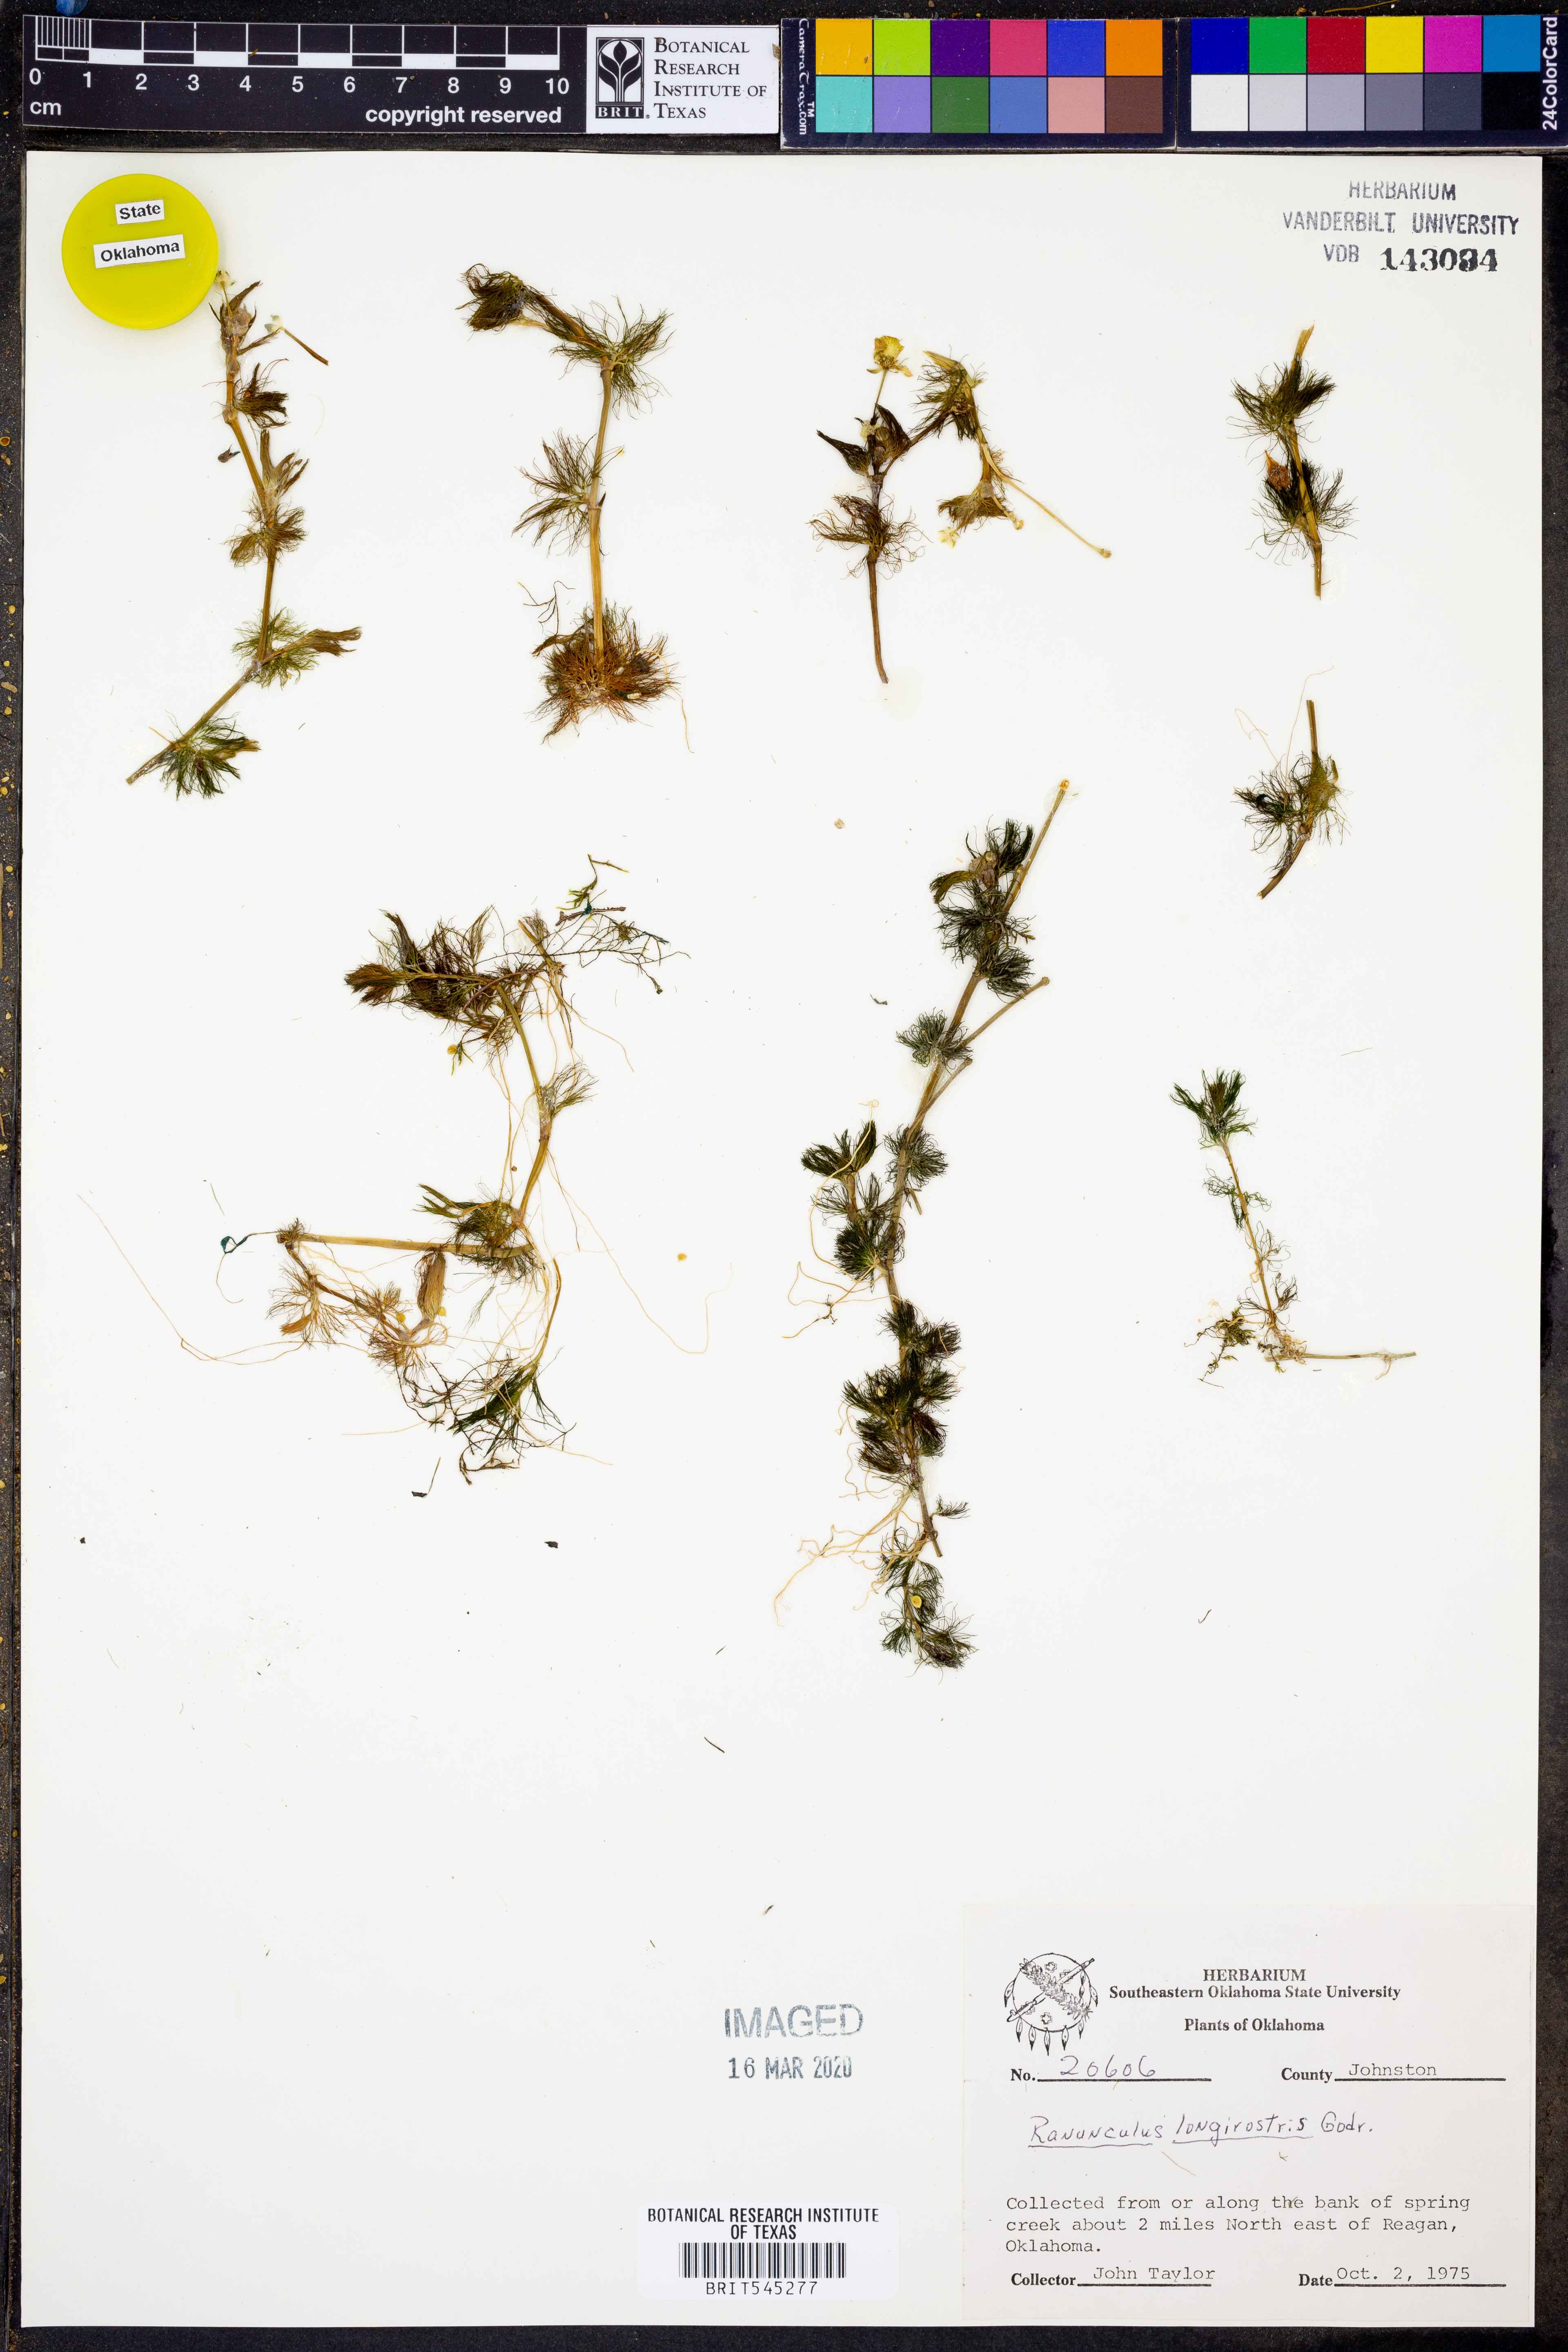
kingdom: Plantae
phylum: Tracheophyta
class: Magnoliopsida
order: Ranunculales
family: Ranunculaceae
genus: Ranunculus
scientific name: Ranunculus longirostris
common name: Curly white water-crowfoot
